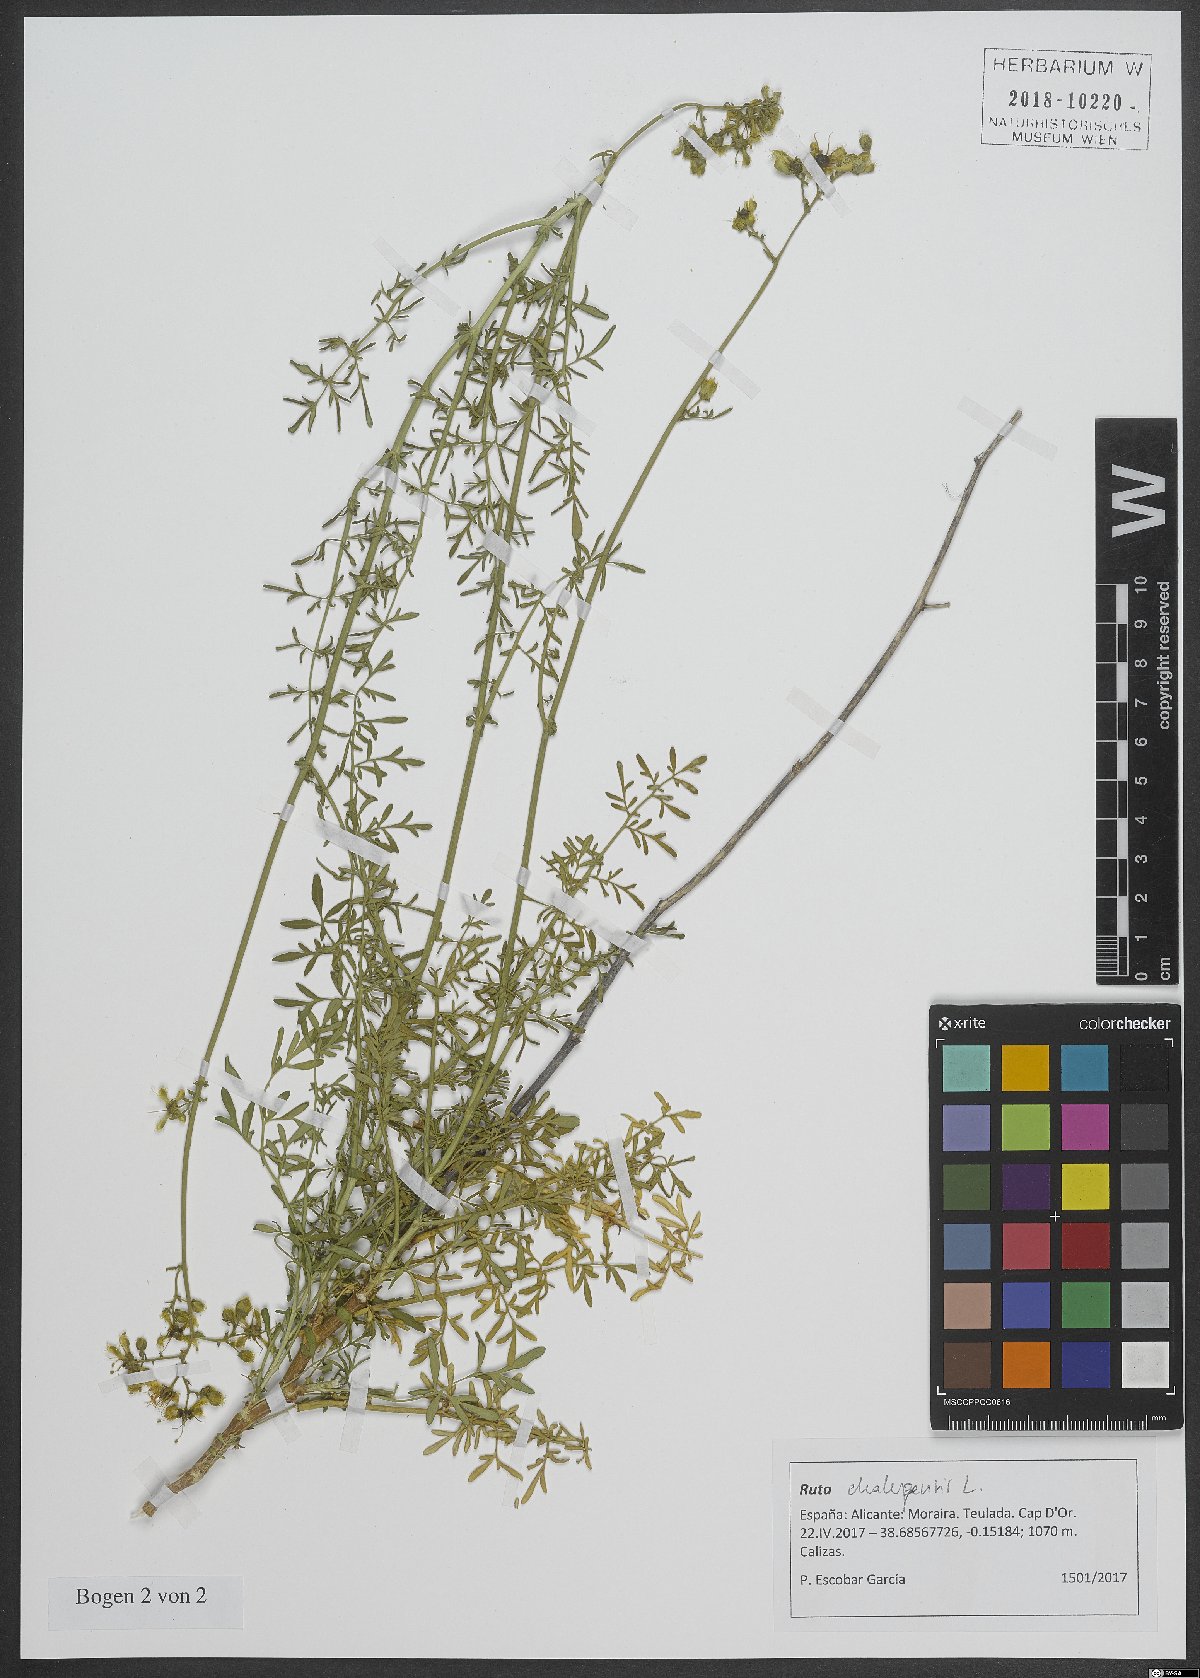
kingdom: Plantae
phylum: Tracheophyta
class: Magnoliopsida
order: Sapindales
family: Rutaceae
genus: Ruta
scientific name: Ruta chalepensis
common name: Fringed rue
